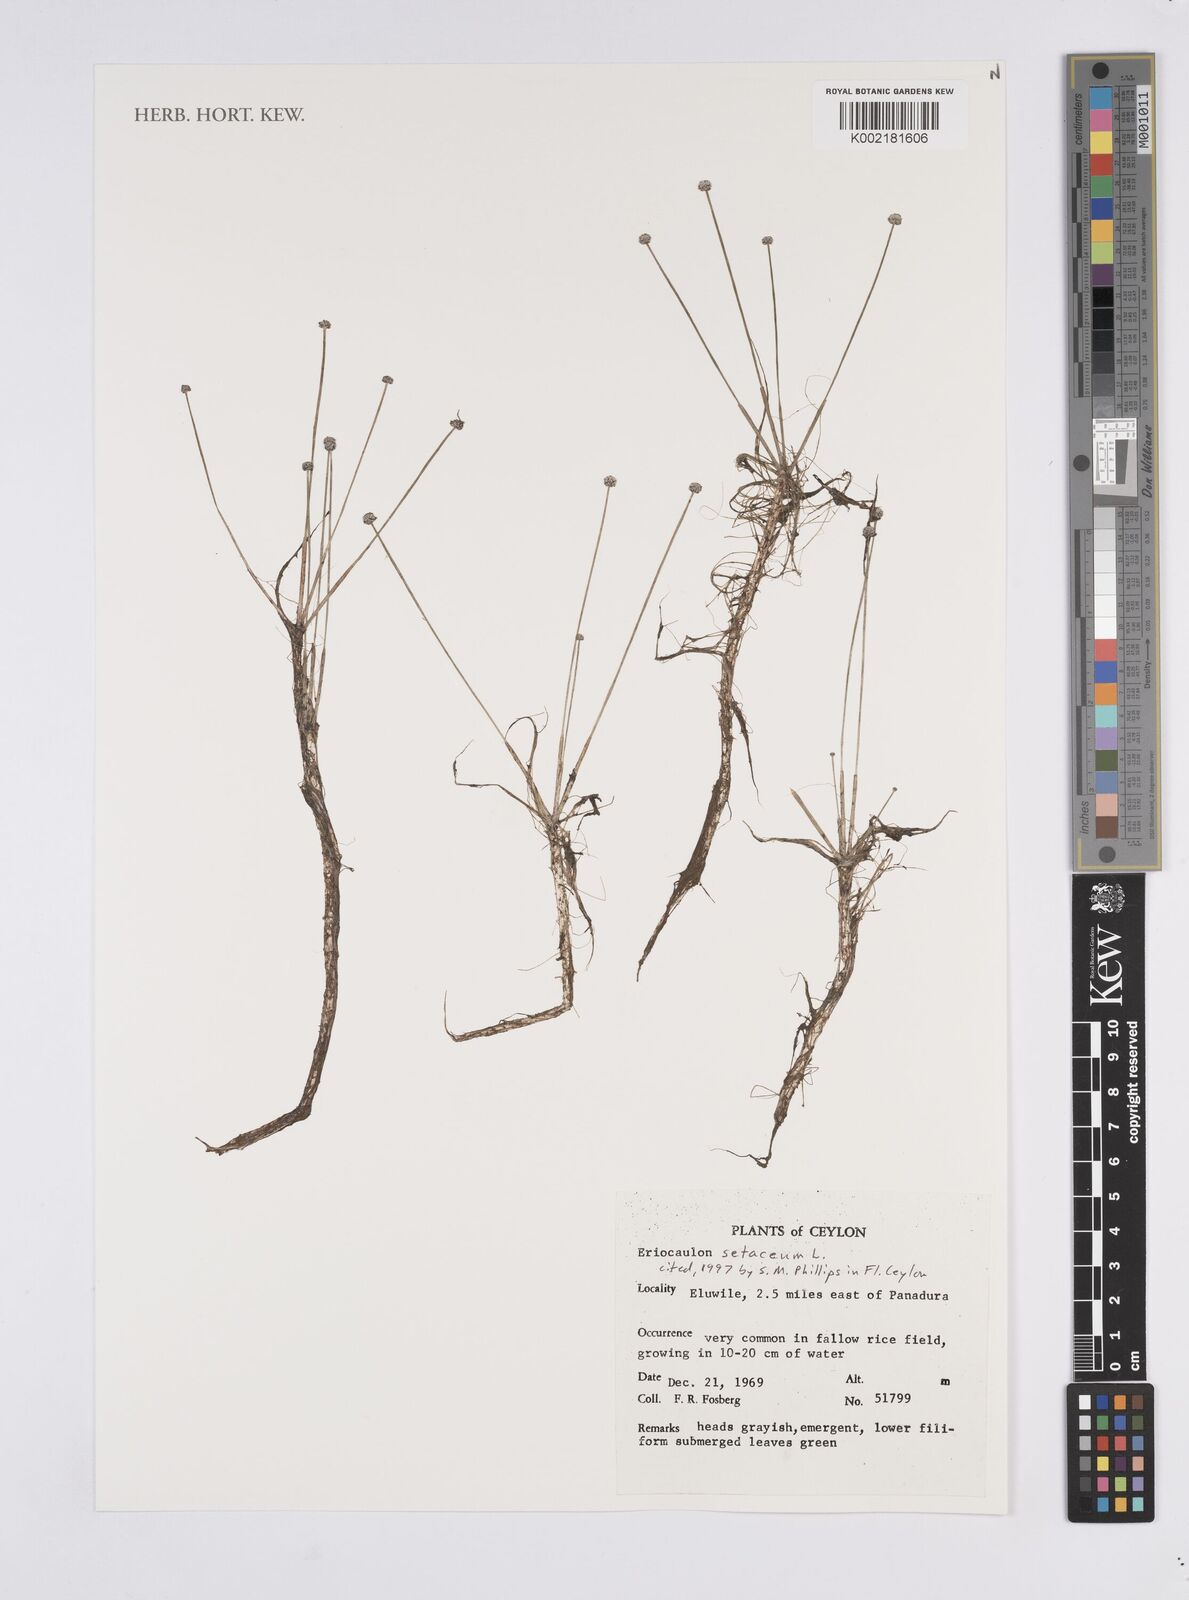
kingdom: Plantae
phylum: Tracheophyta
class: Liliopsida
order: Poales
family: Eriocaulaceae
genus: Eriocaulon
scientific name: Eriocaulon setaceum
